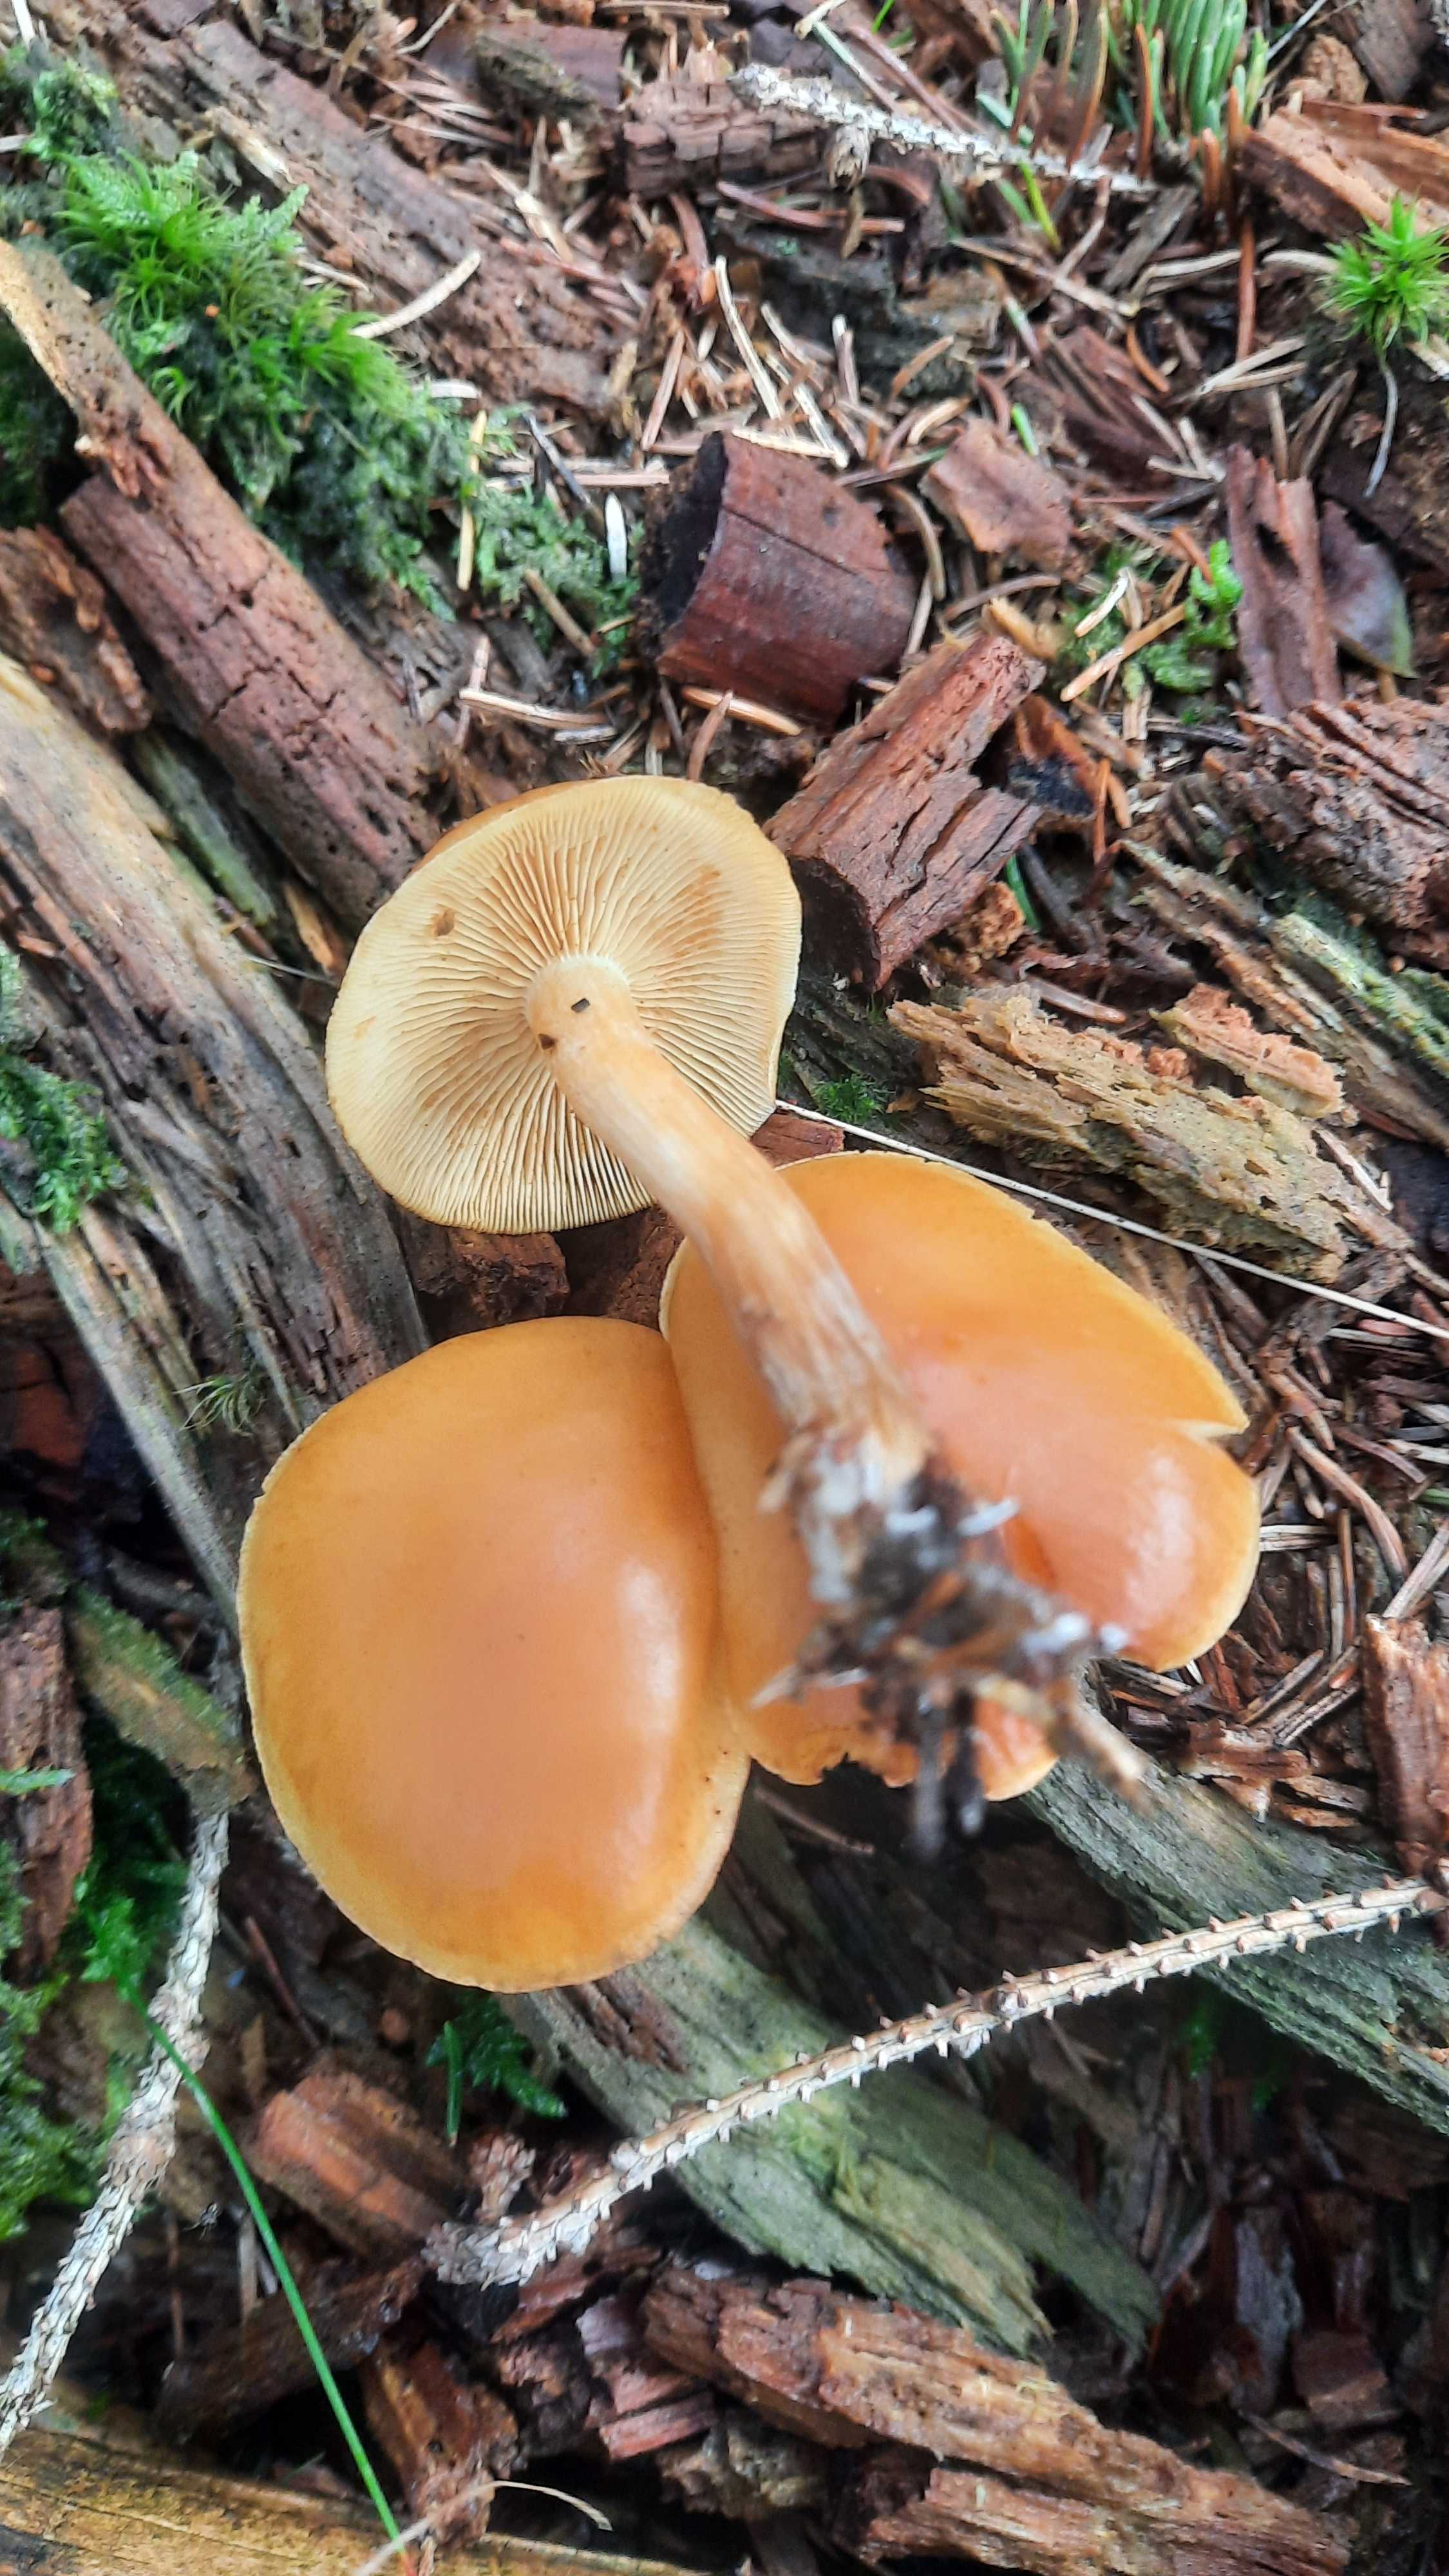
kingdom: Fungi
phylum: Basidiomycota
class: Agaricomycetes
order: Agaricales
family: Hymenogastraceae
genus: Gymnopilus
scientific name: Gymnopilus penetrans
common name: plettet flammehat
